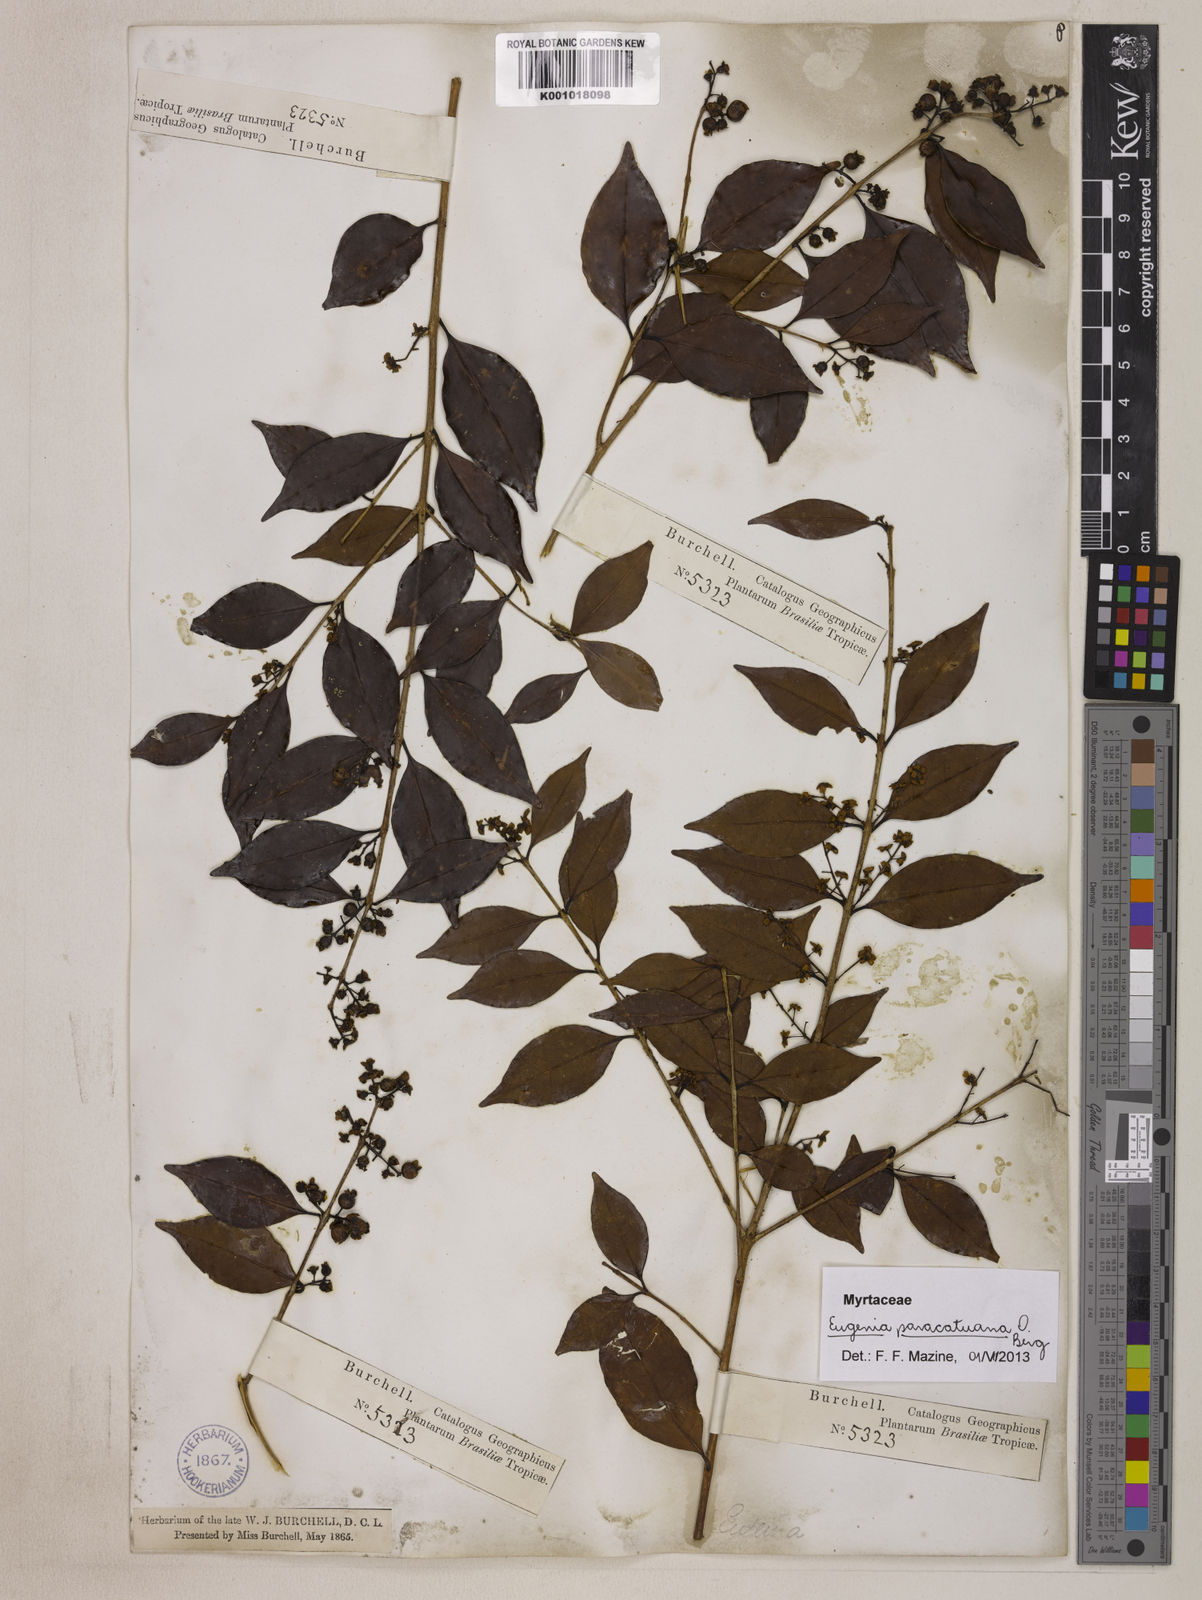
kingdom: Plantae
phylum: Tracheophyta
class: Magnoliopsida
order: Myrtales
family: Myrtaceae
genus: Eugenia
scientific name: Eugenia moraviana
